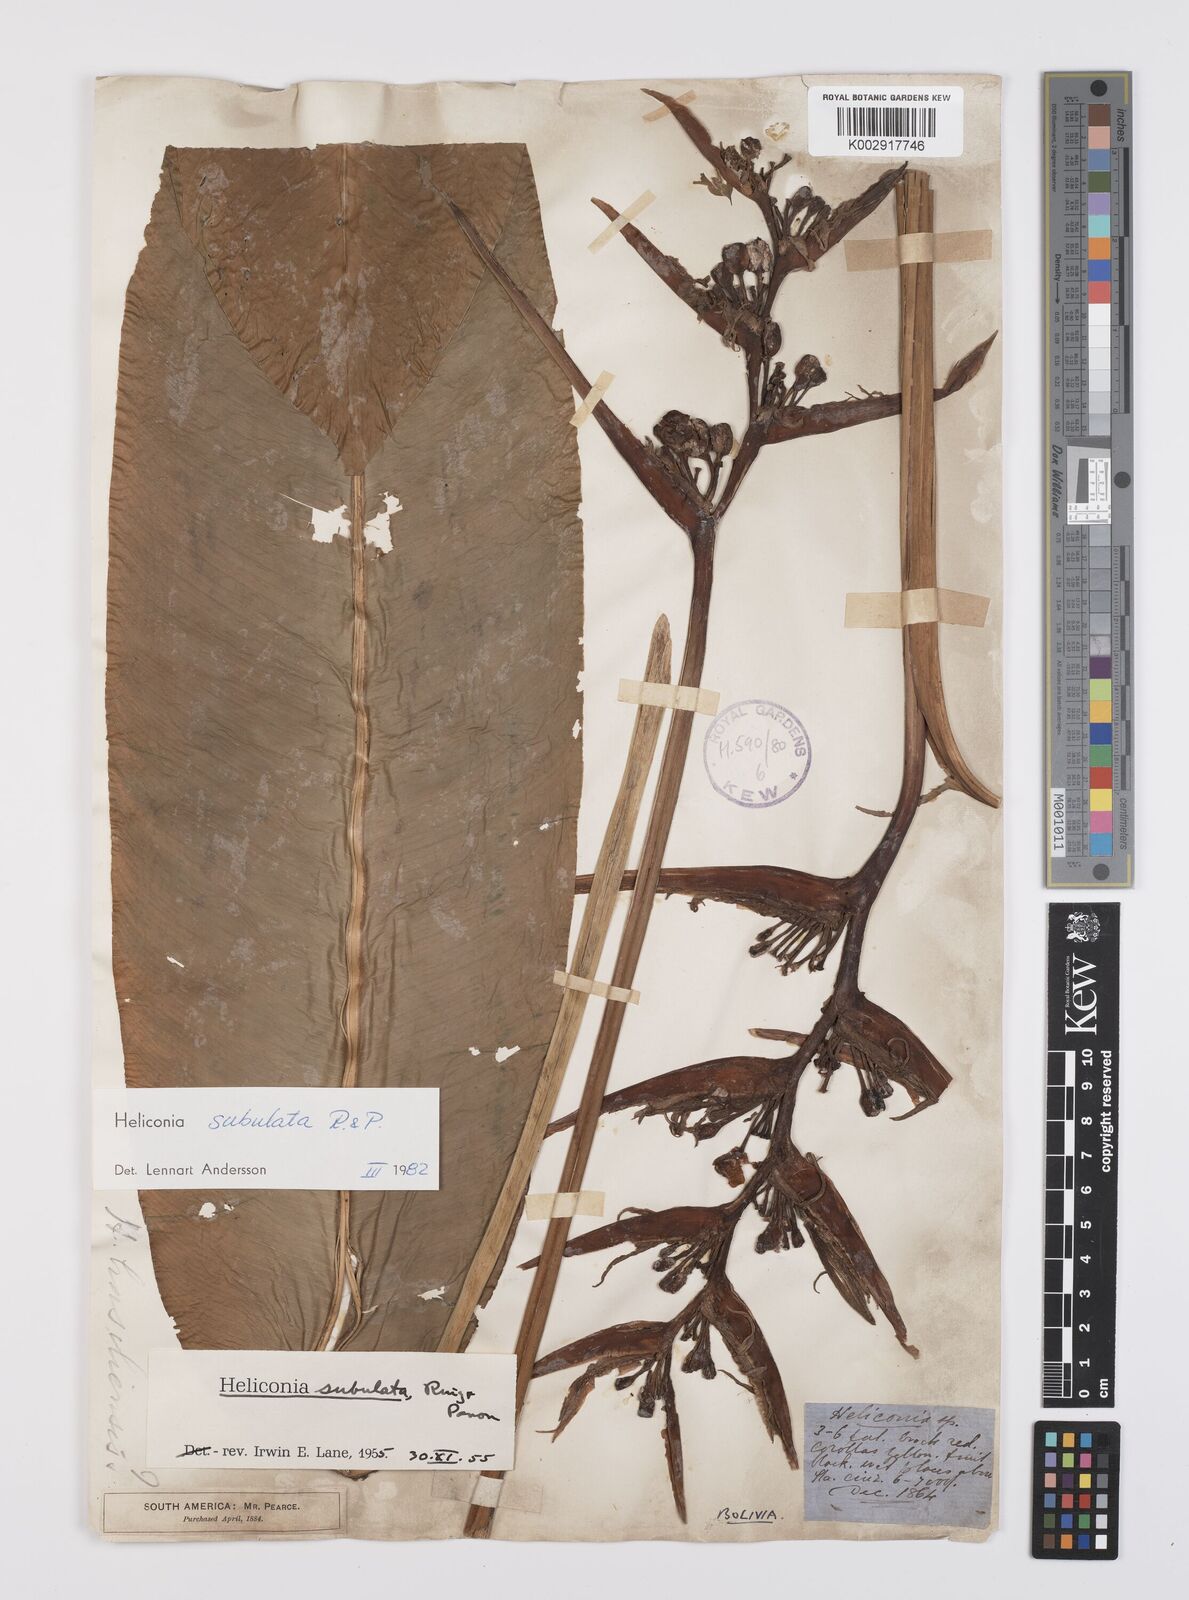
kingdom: Plantae
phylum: Tracheophyta
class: Liliopsida
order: Zingiberales
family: Heliconiaceae
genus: Heliconia
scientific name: Heliconia subulata
